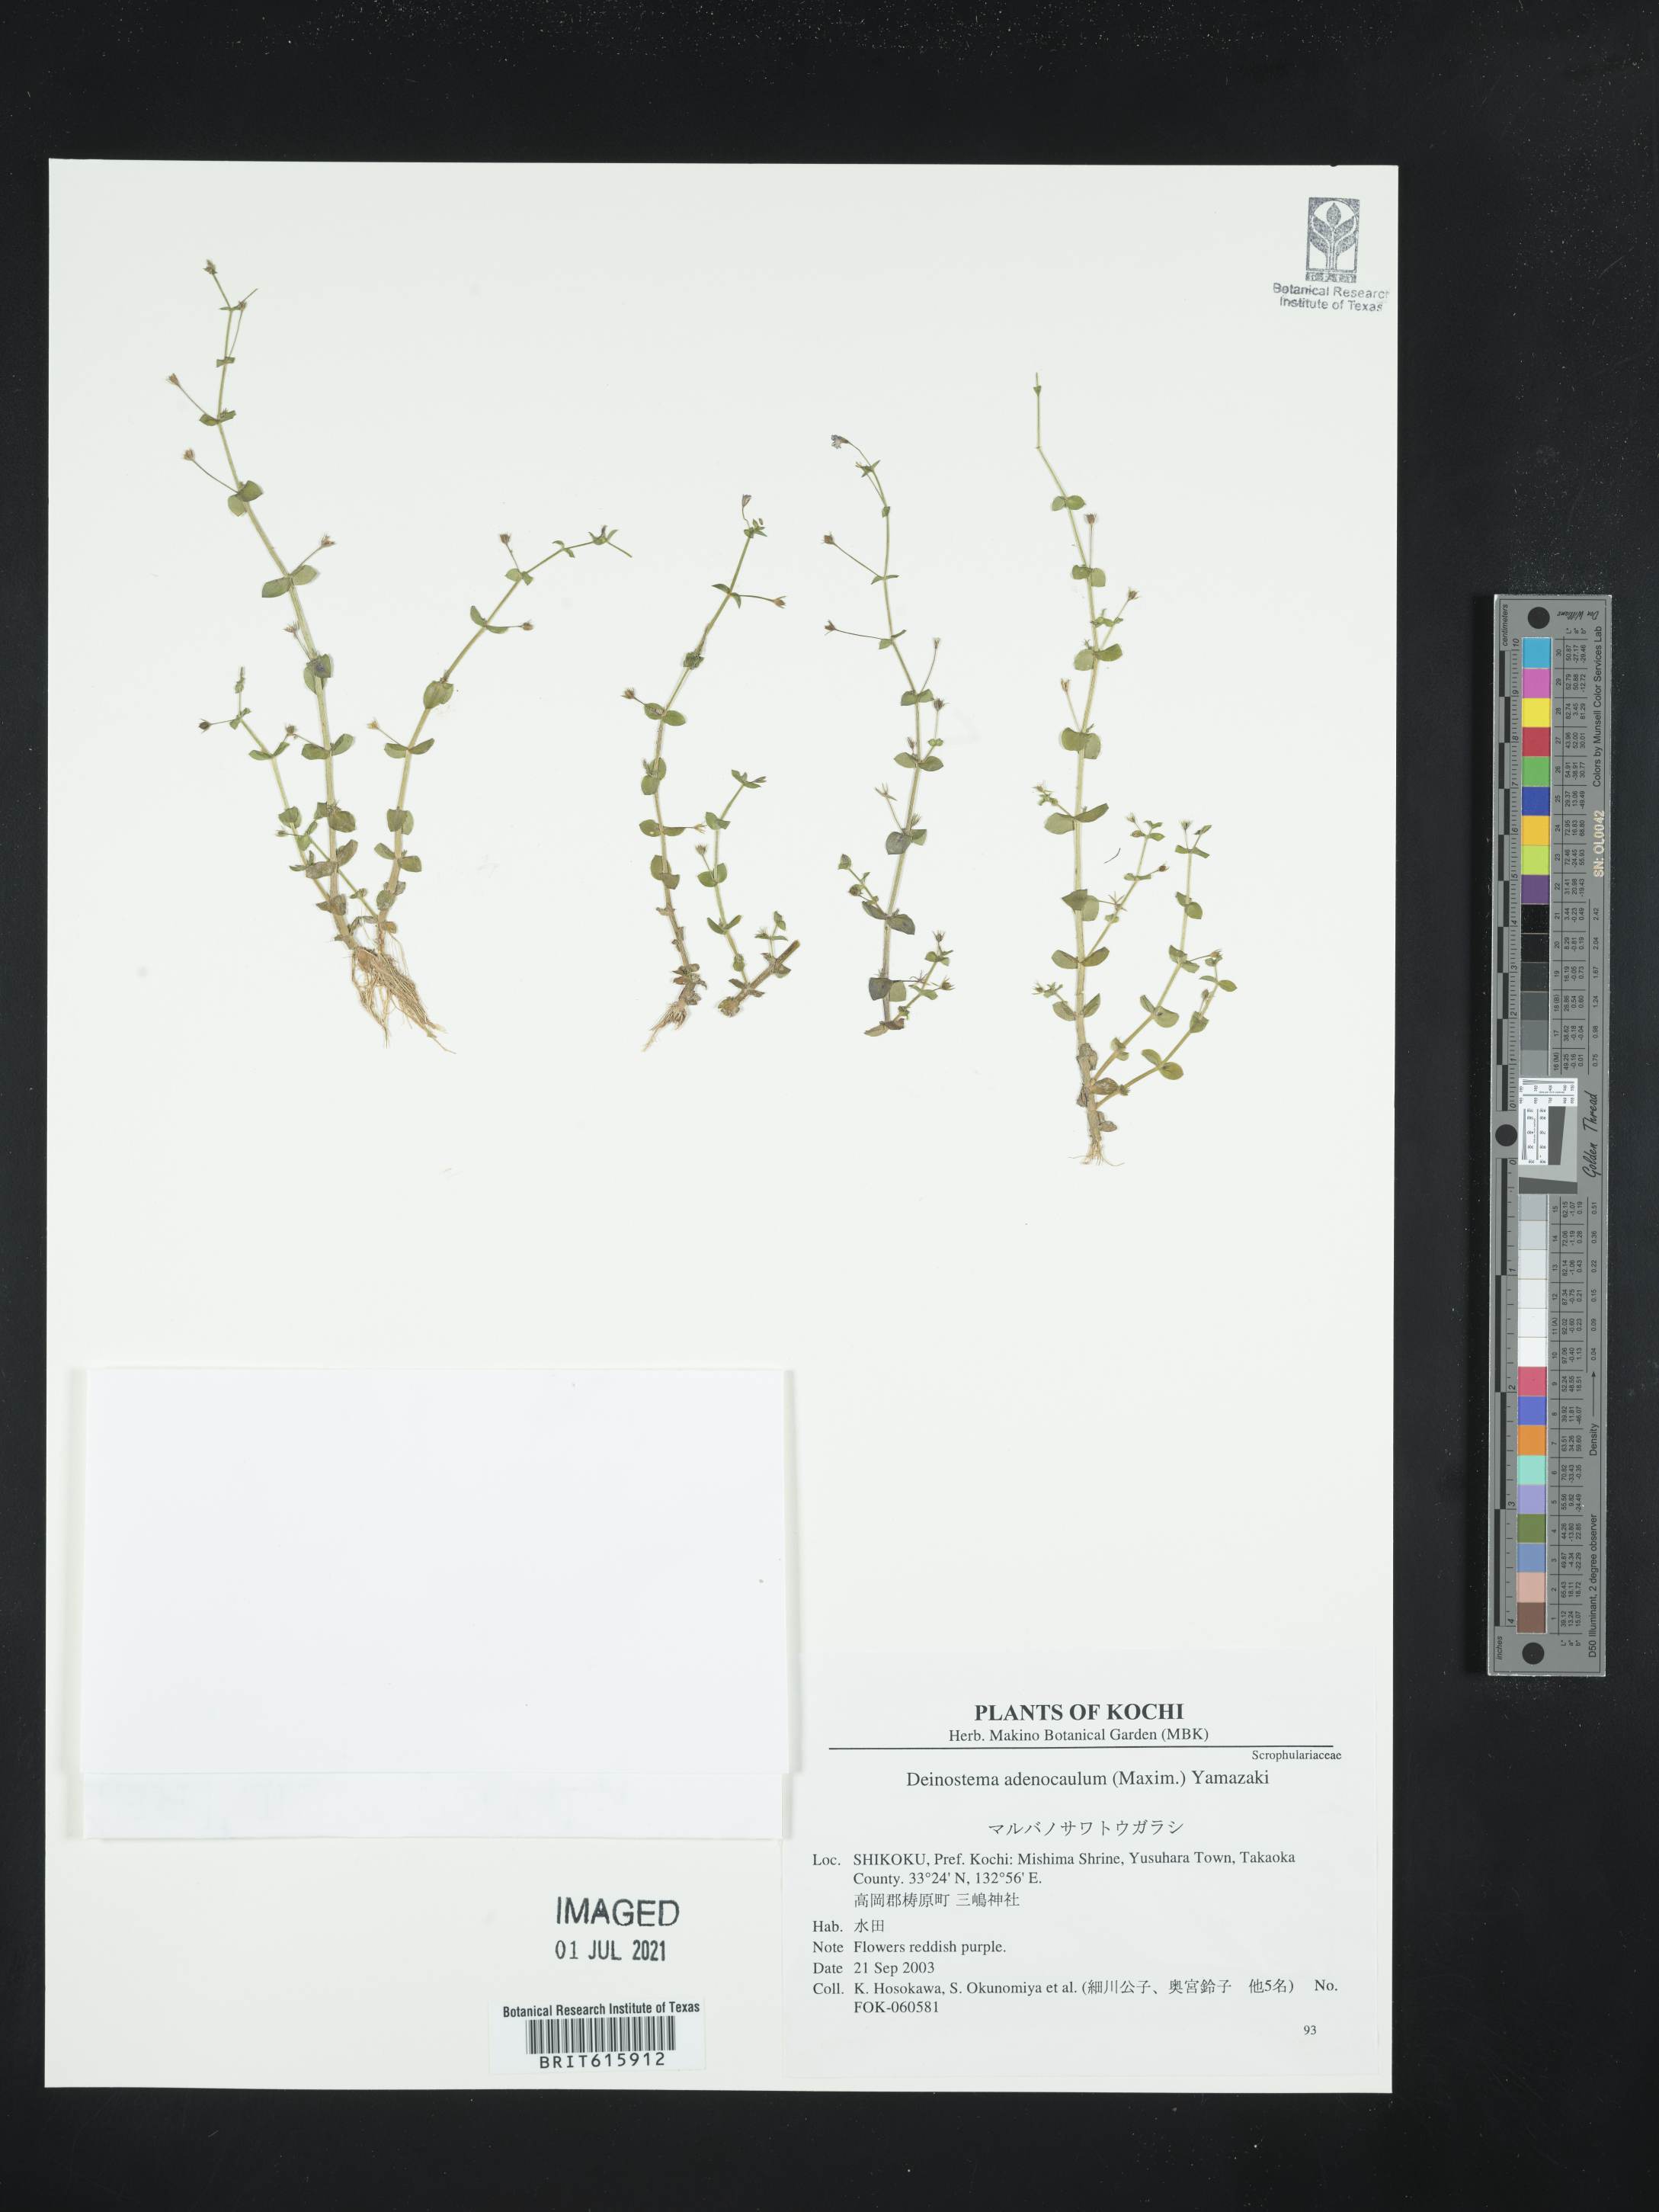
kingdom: Plantae
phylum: Tracheophyta
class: Magnoliopsida
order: Lamiales
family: Plantaginaceae
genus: Deinostema
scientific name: Deinostema adenocaula
